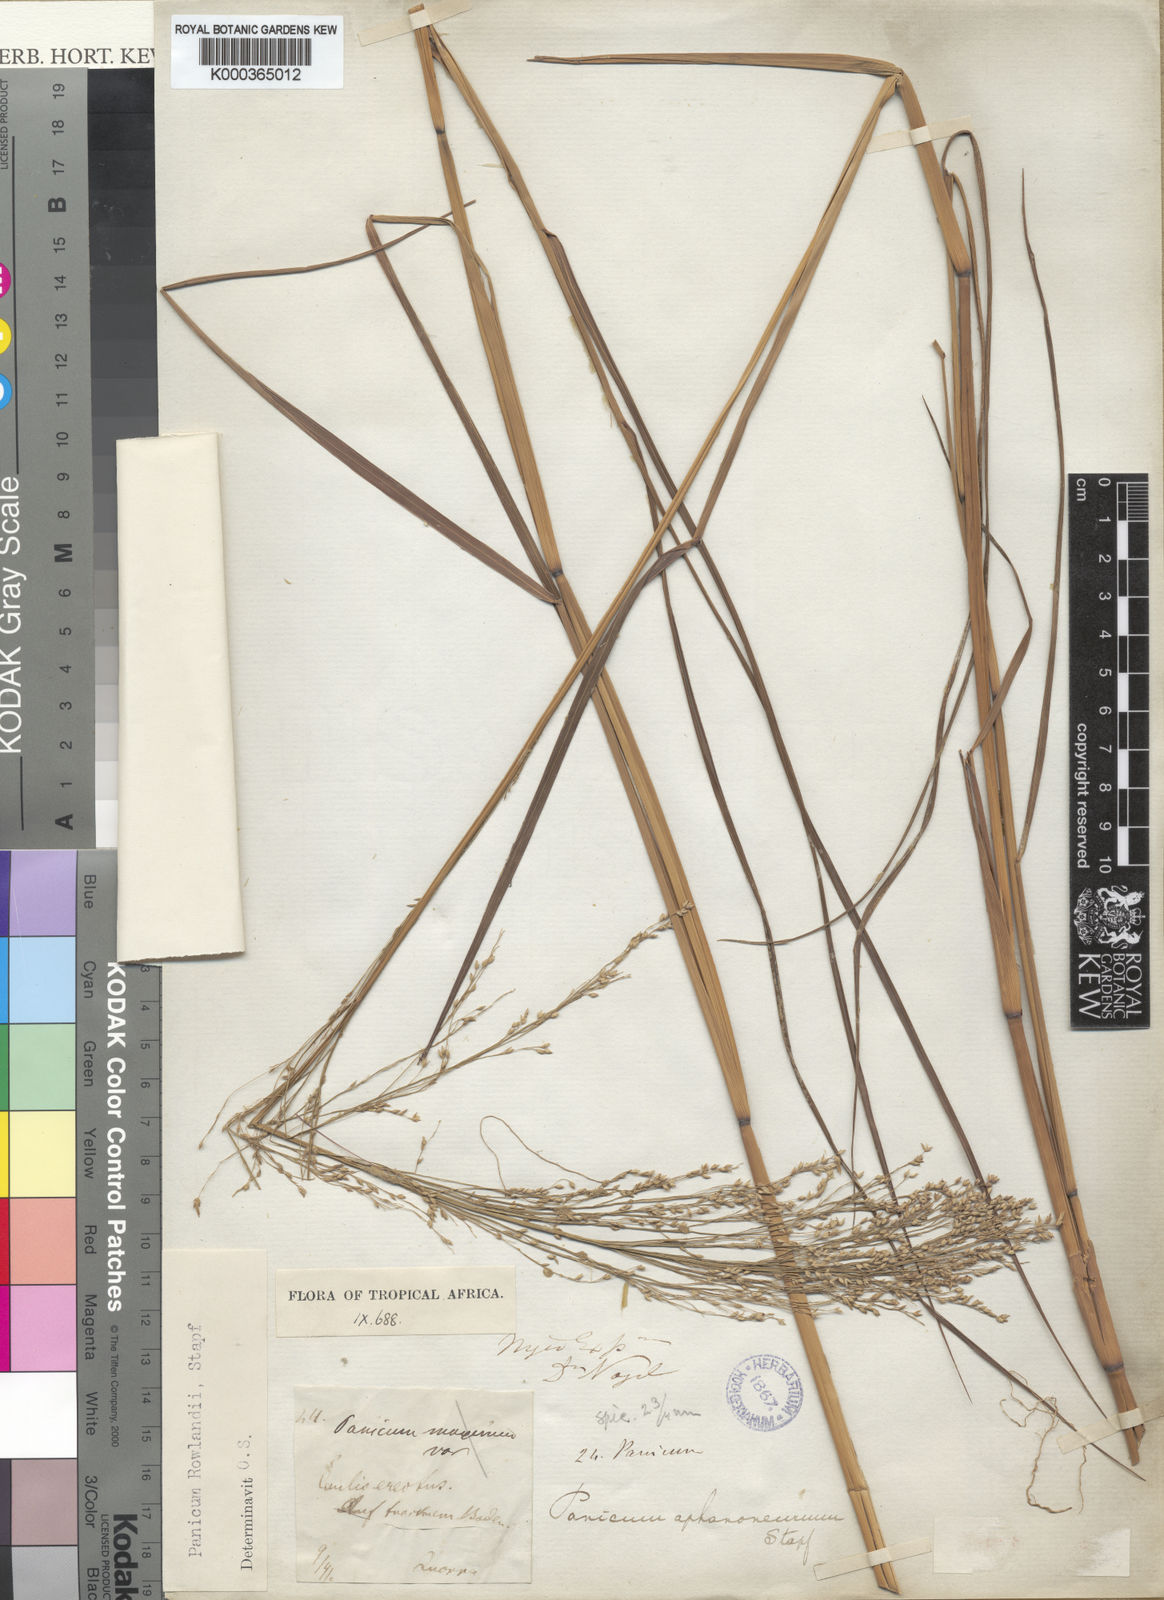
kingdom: Plantae
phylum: Tracheophyta
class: Liliopsida
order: Poales
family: Poaceae
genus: Panicum
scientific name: Panicum fluviicola
